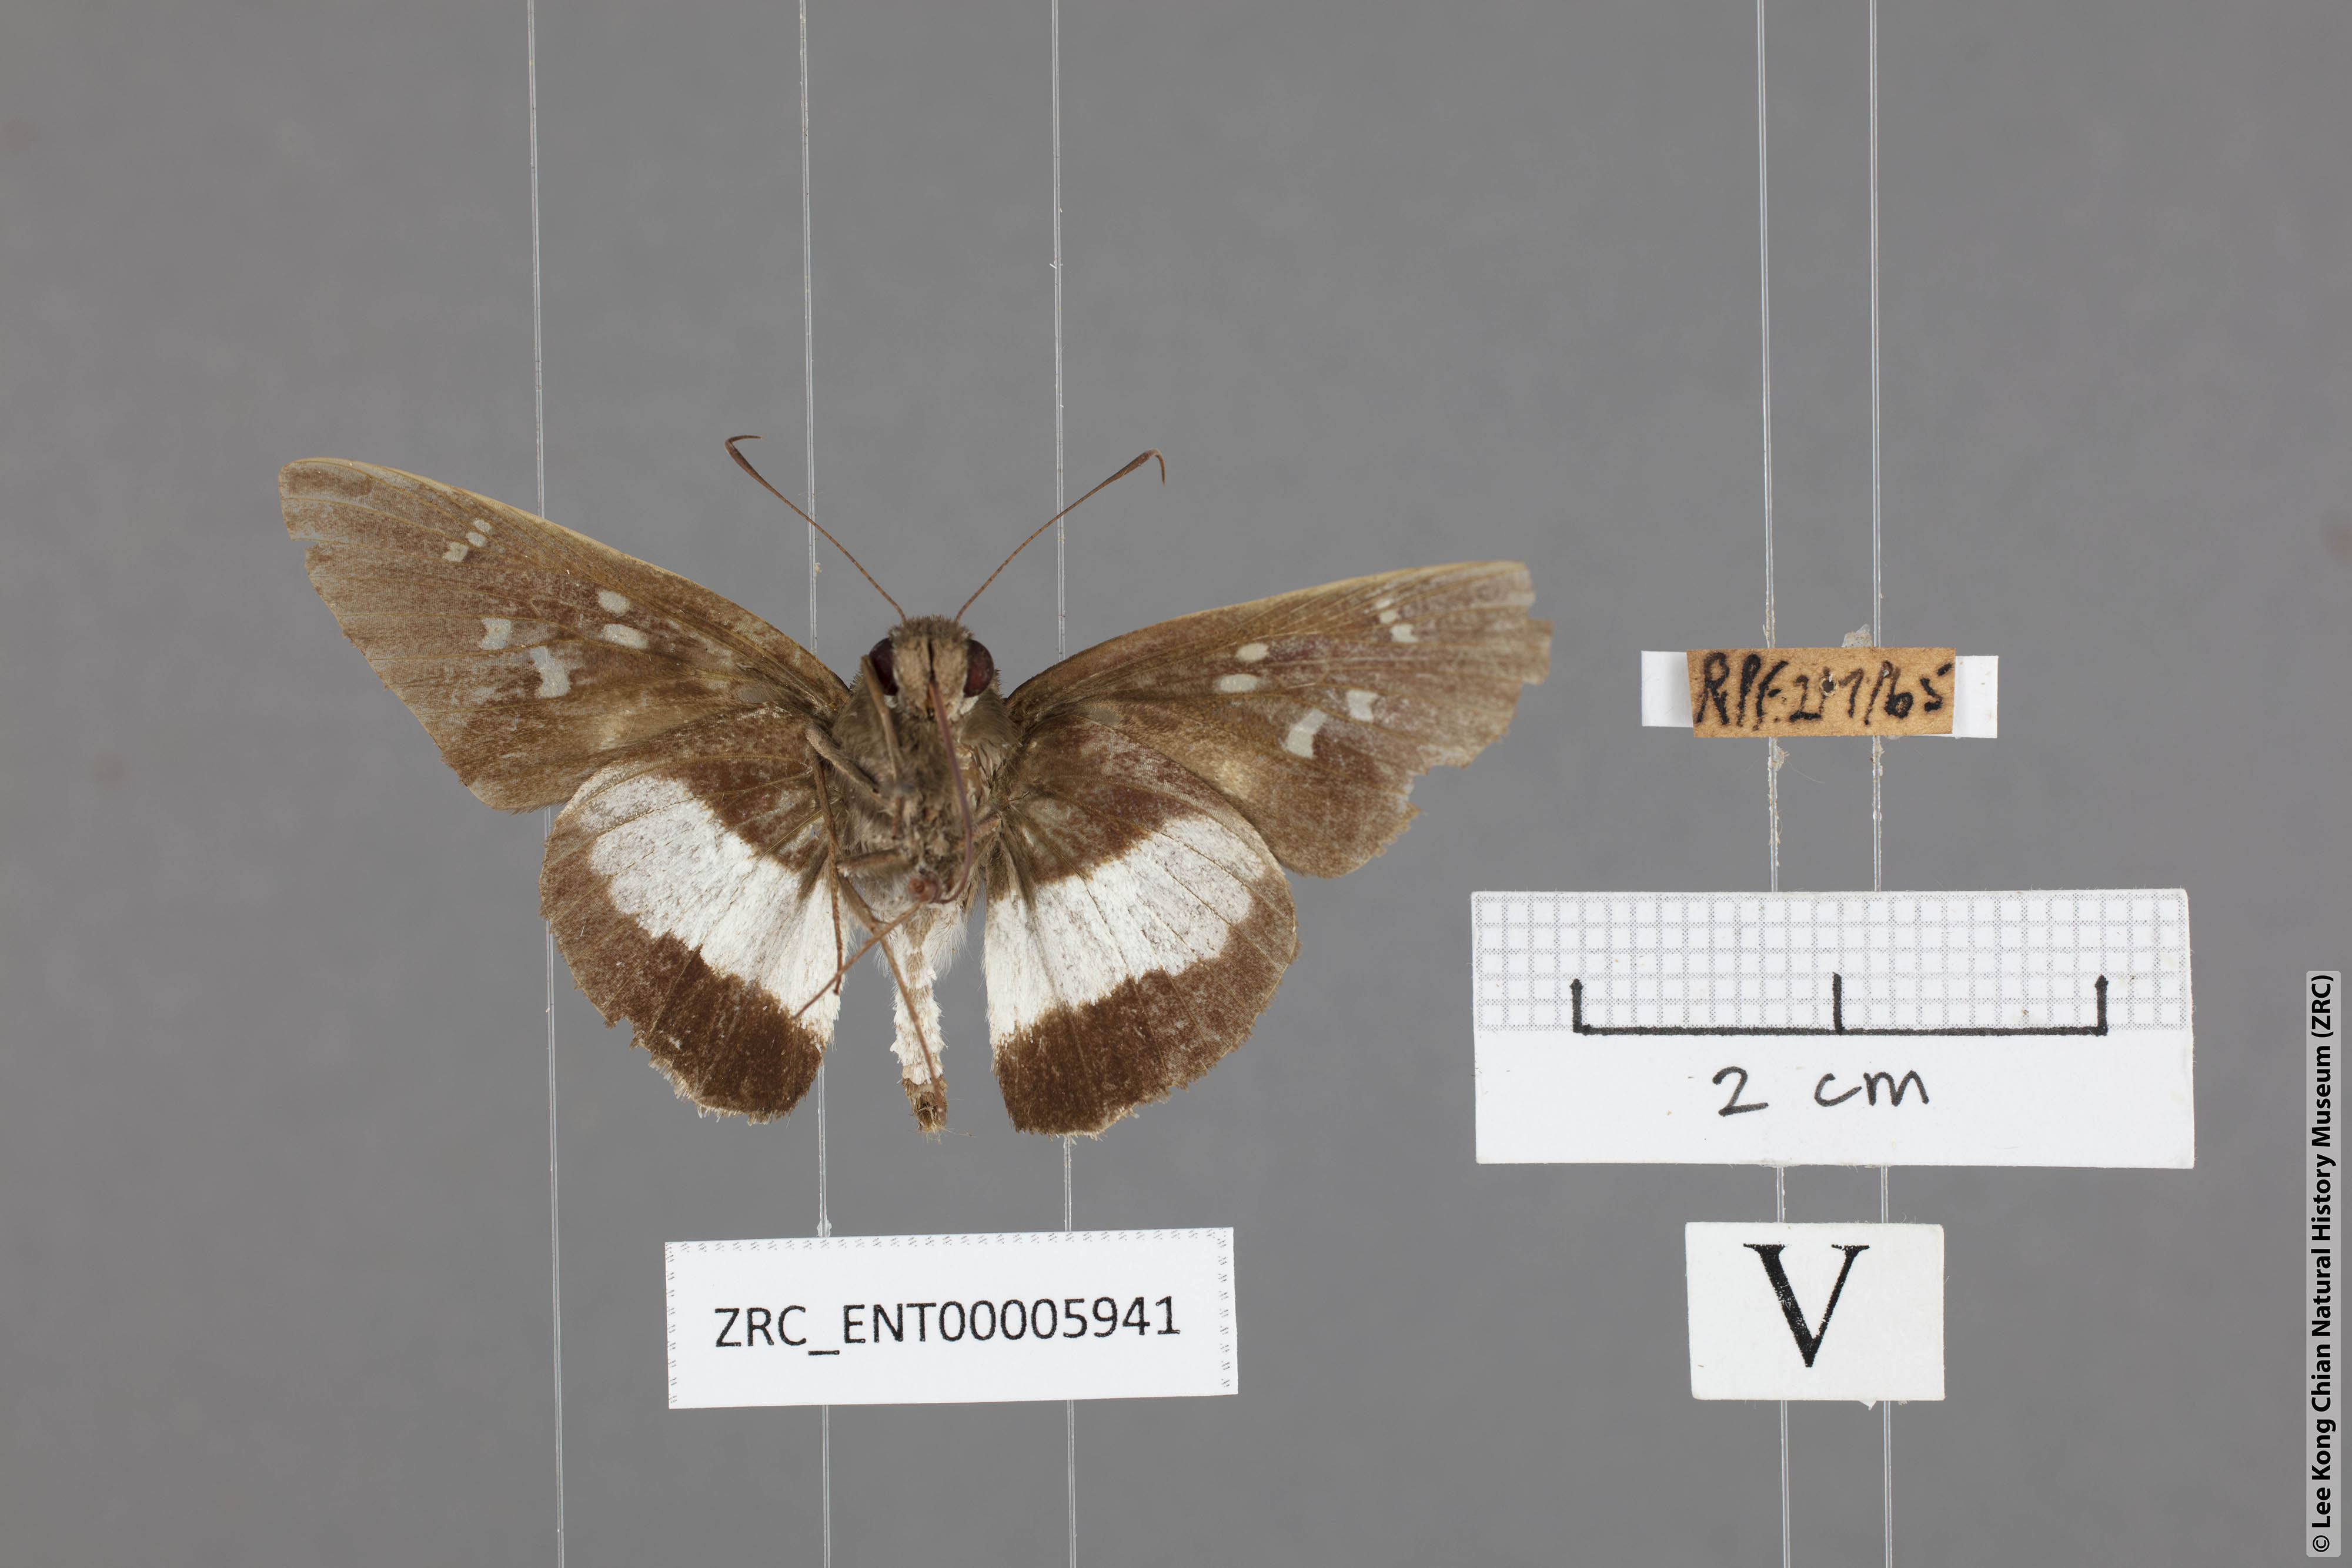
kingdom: Animalia
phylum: Arthropoda
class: Insecta
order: Lepidoptera
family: Hesperiidae
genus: Acerbas
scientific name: Acerbas martini
